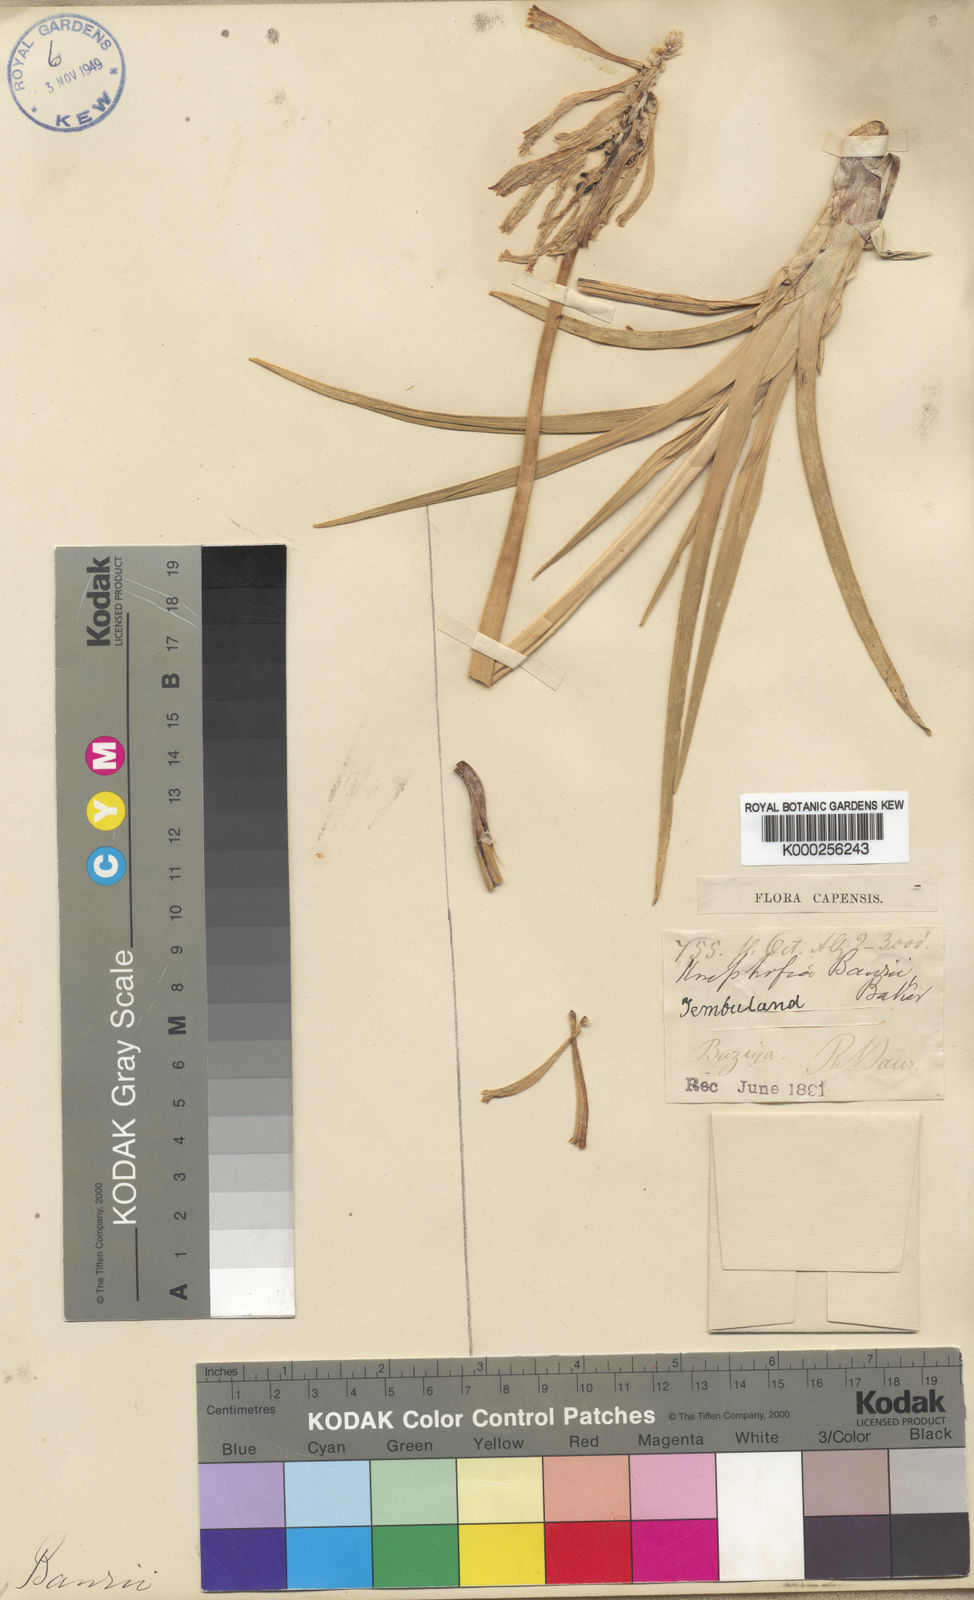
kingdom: Plantae
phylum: Tracheophyta
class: Liliopsida
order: Asparagales
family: Asphodelaceae
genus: Kniphofia
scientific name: Kniphofia baurii
